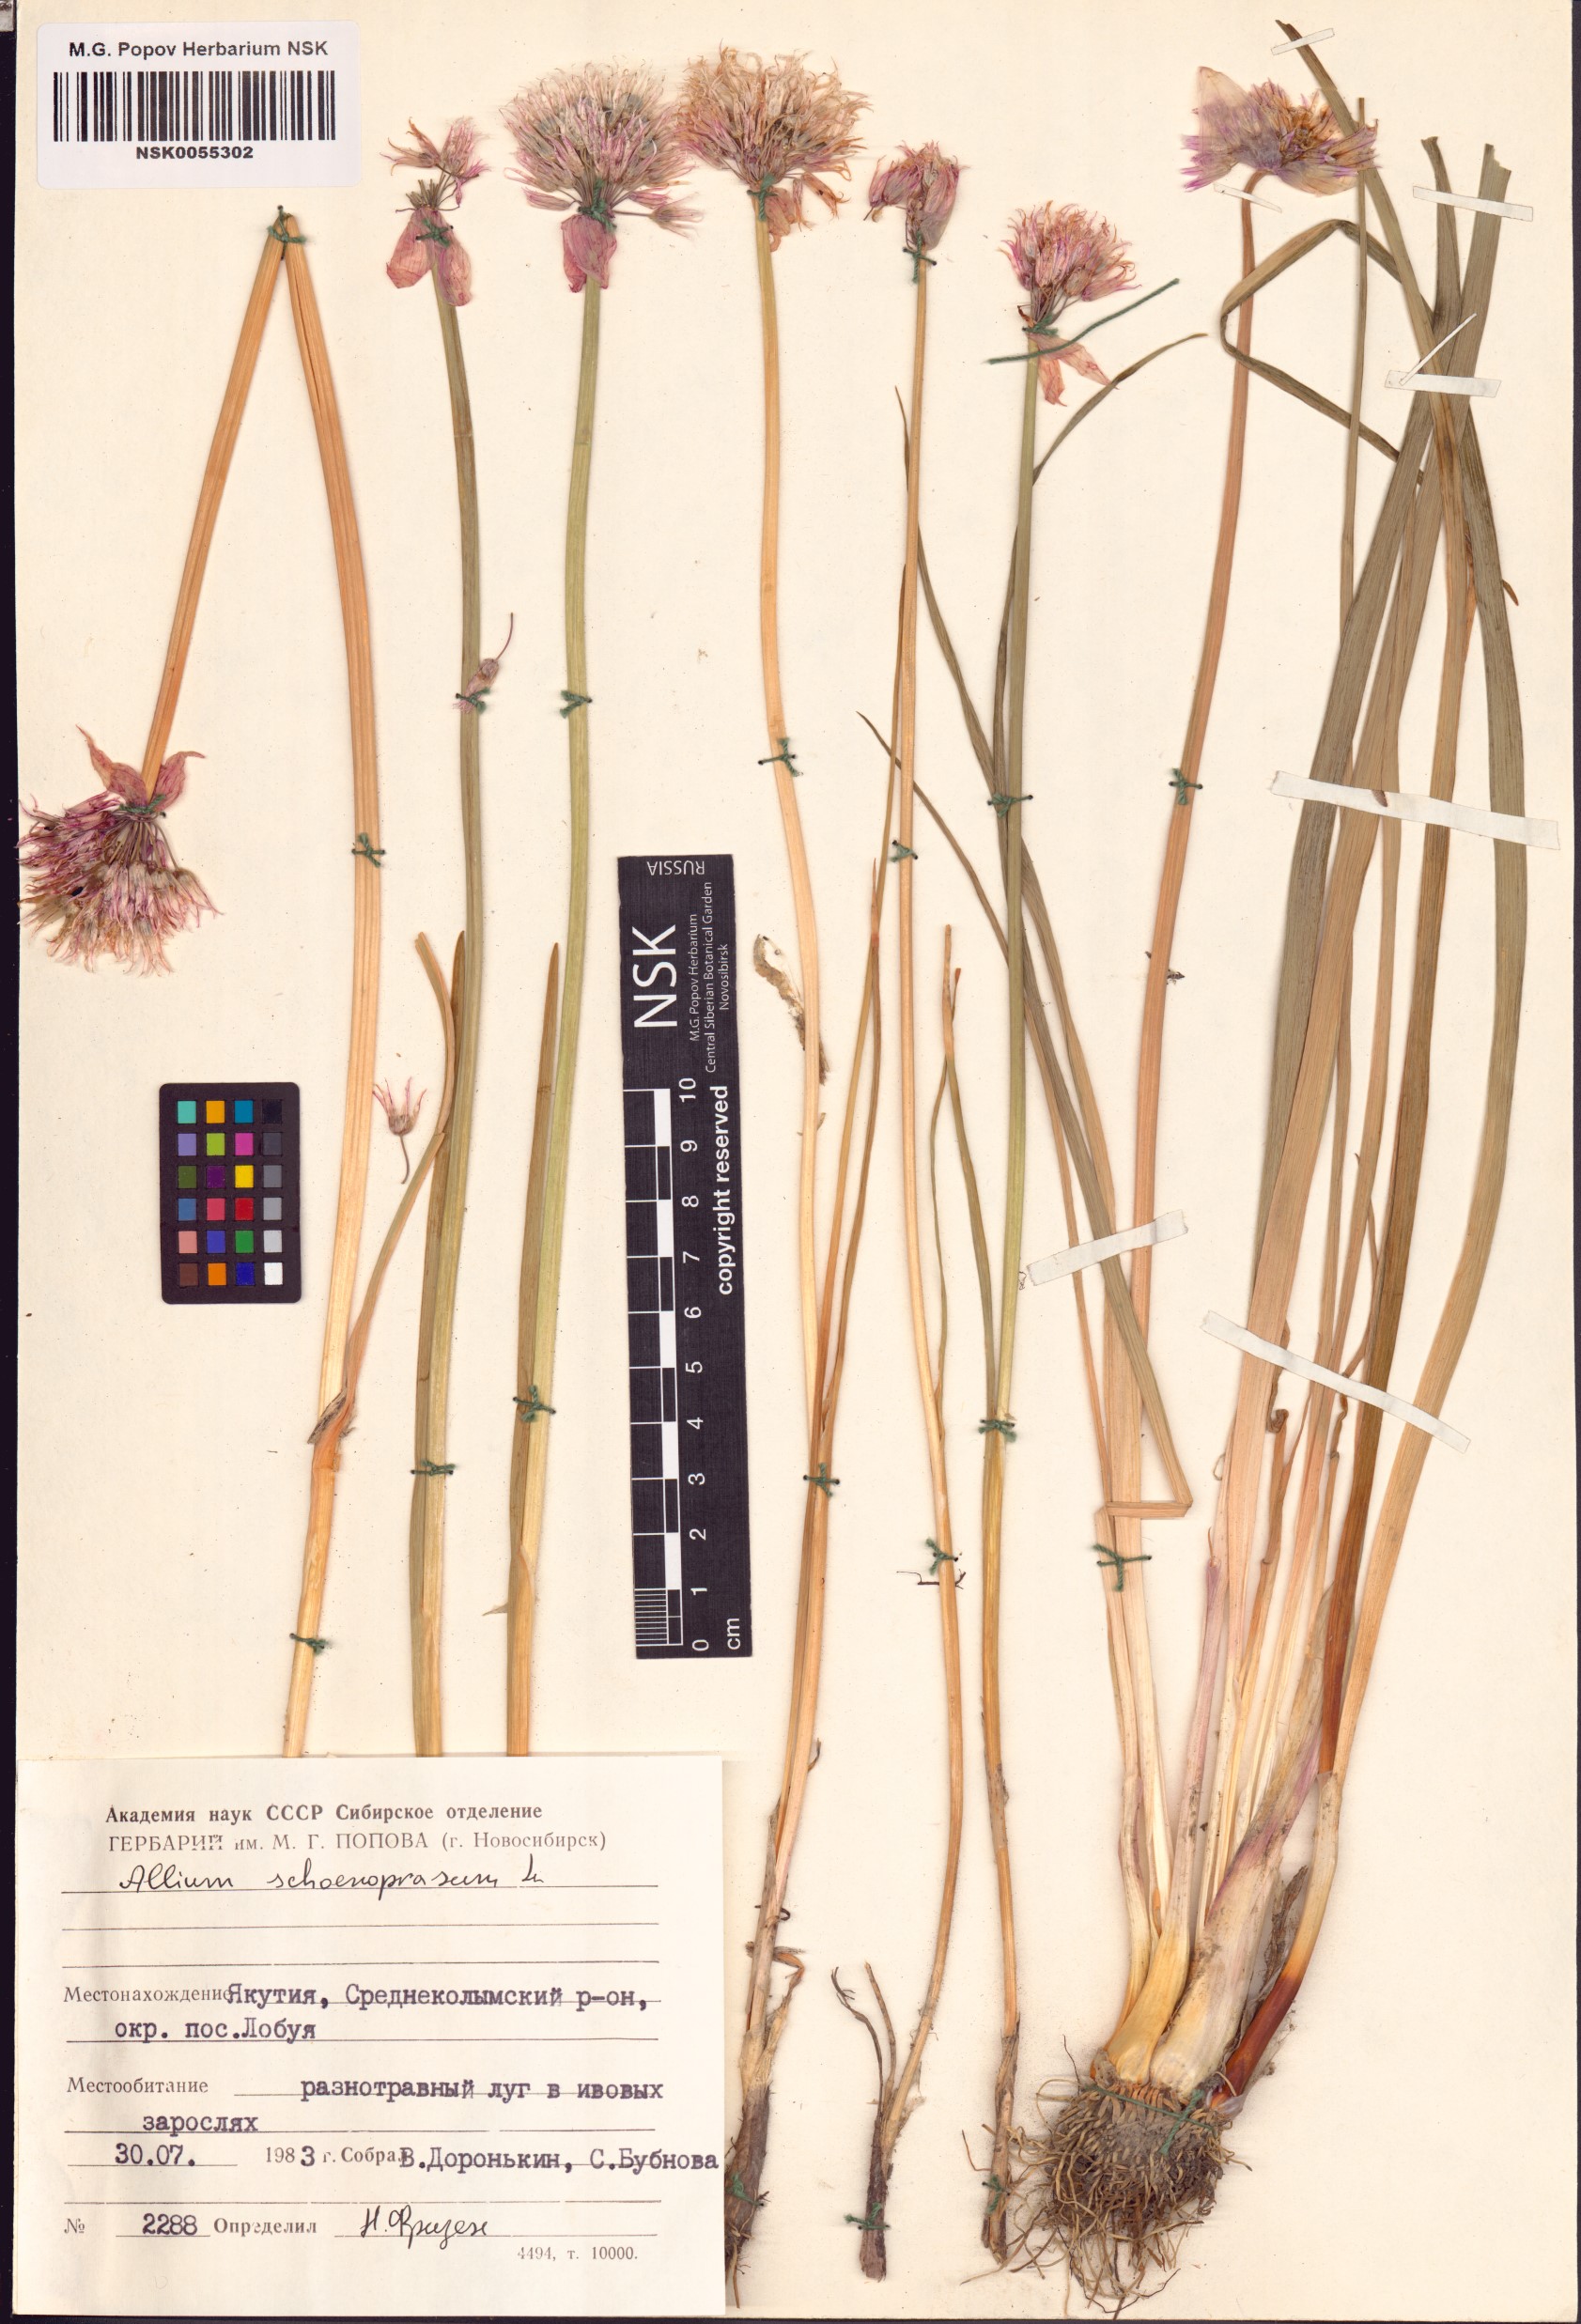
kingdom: Plantae
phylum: Tracheophyta
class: Liliopsida
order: Asparagales
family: Amaryllidaceae
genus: Allium
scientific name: Allium schoenoprasum
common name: Chives
